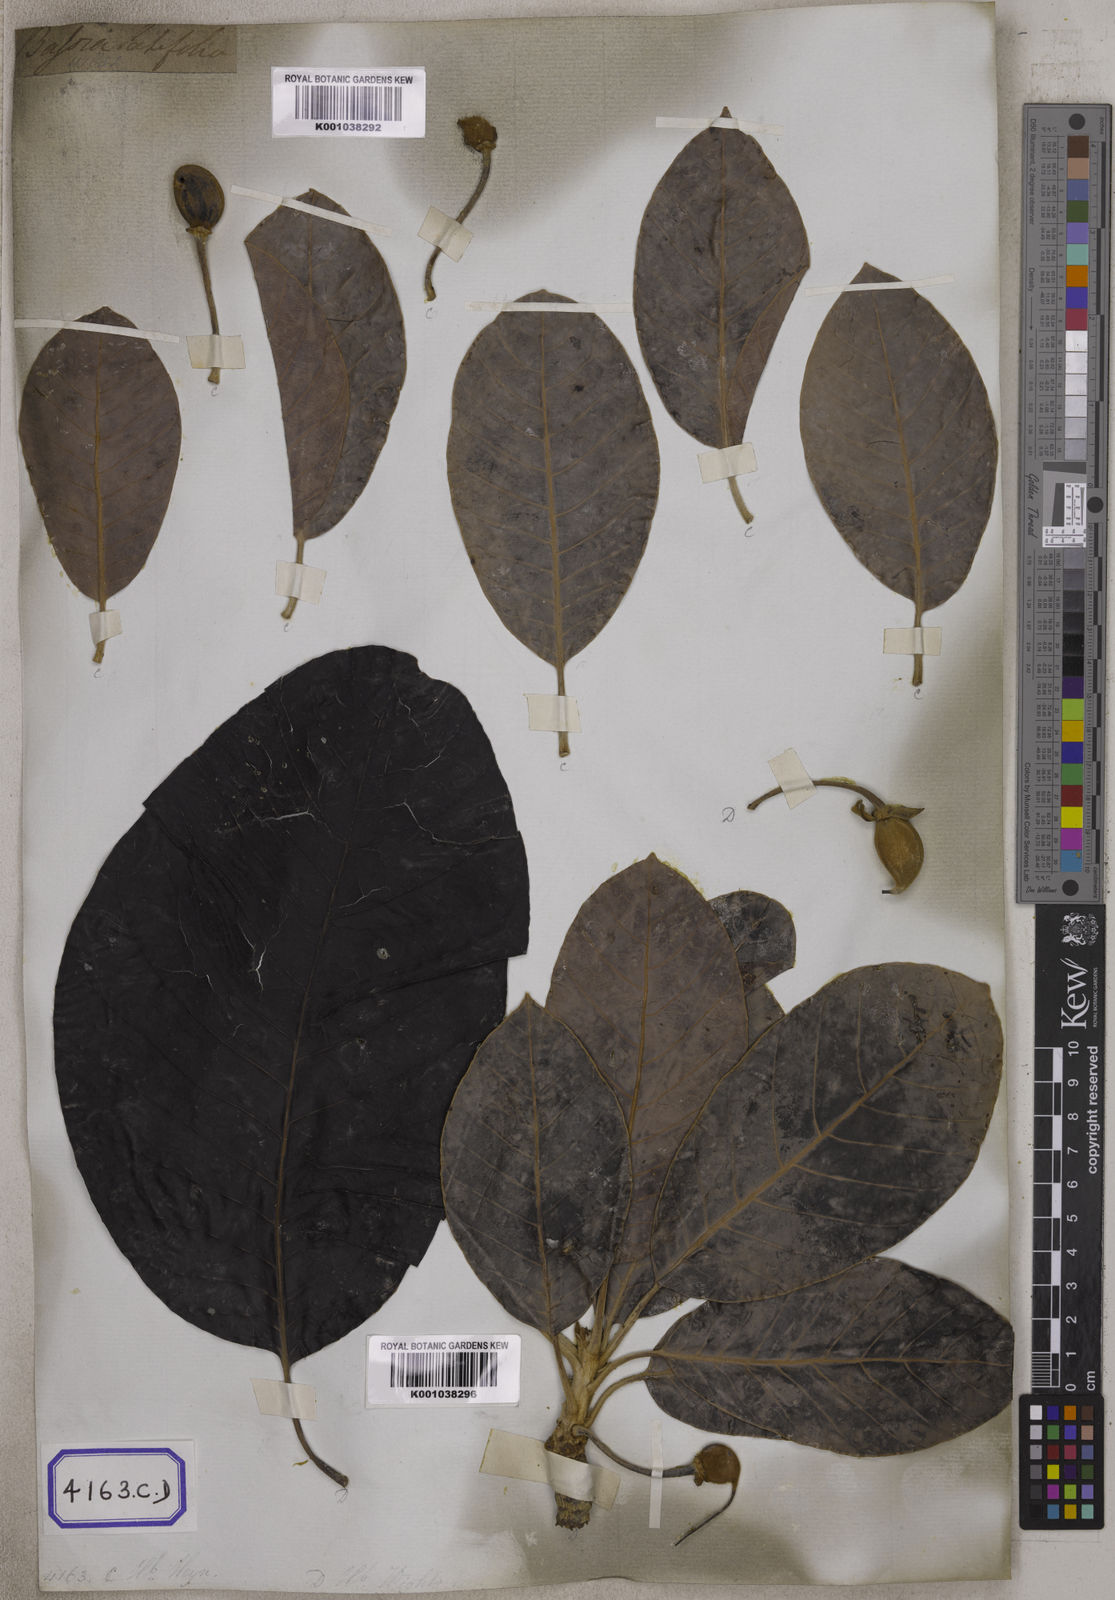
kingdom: Plantae
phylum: Tracheophyta
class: Magnoliopsida
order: Ericales
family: Sapotaceae
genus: Madhuca
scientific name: Madhuca longifolia
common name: Mowra-buttertree
